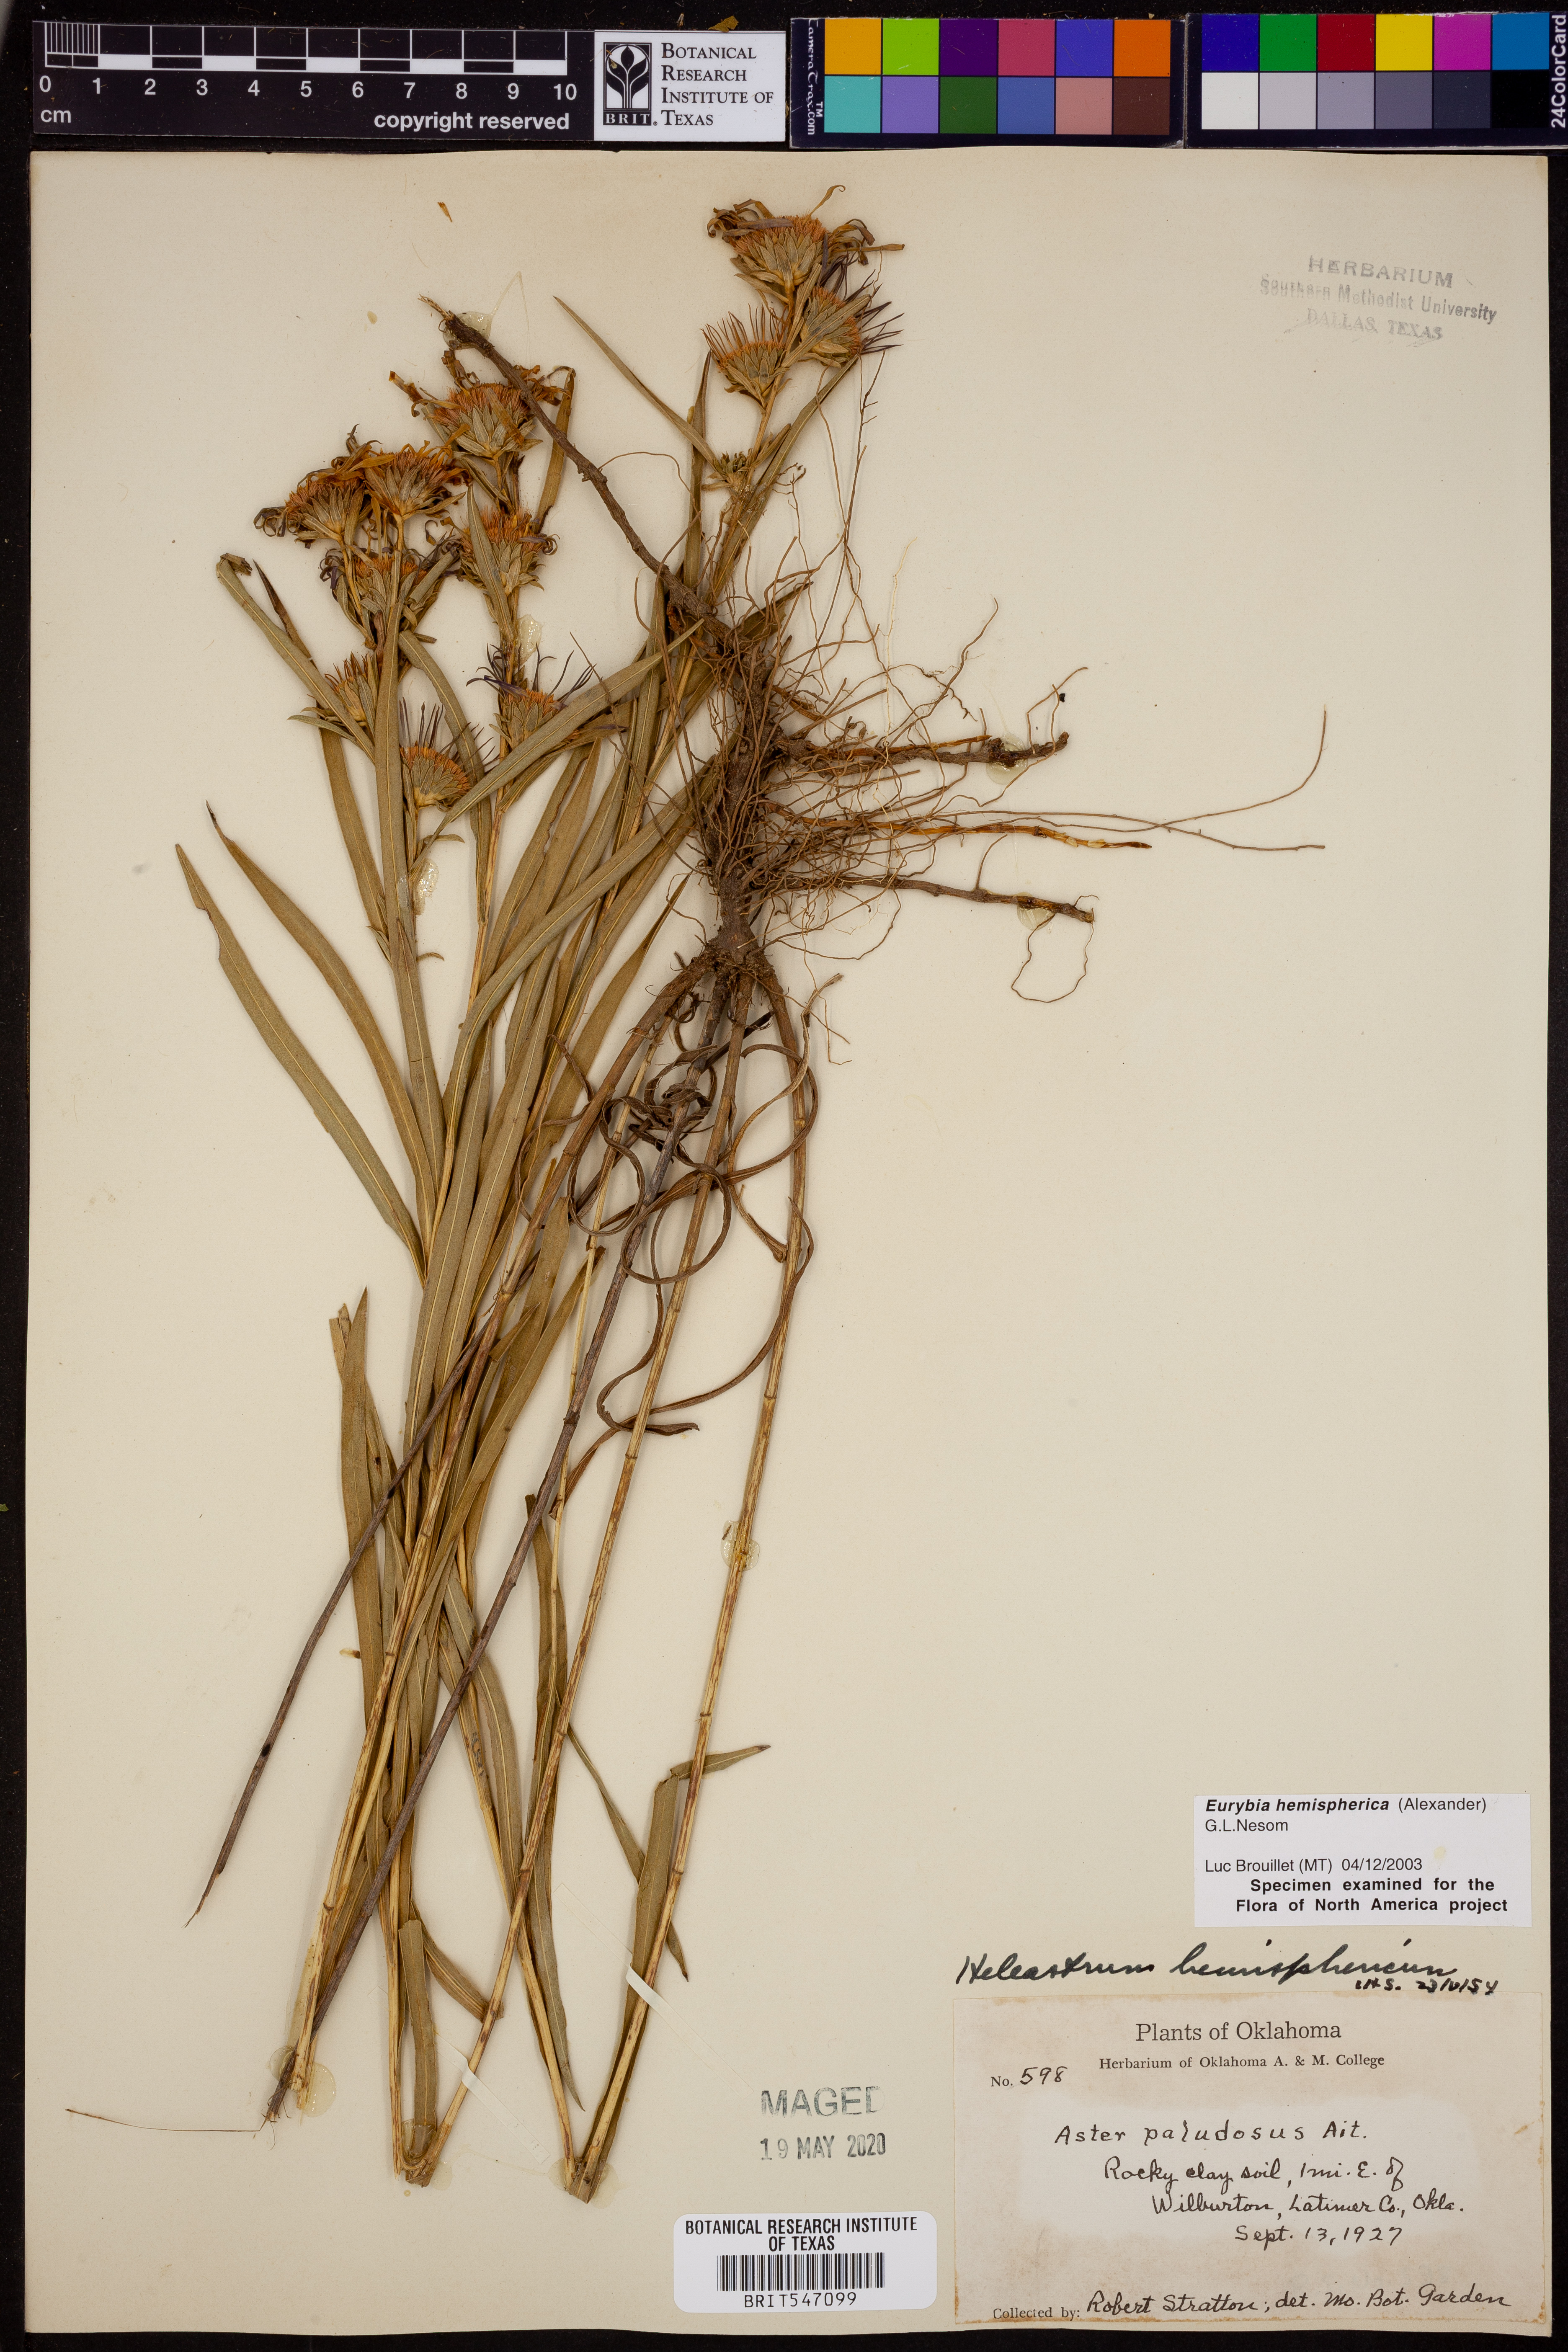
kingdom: Plantae
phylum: Tracheophyta
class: Magnoliopsida
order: Asterales
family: Asteraceae
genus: Eurybia
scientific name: Eurybia hemispherica
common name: Showy aster
